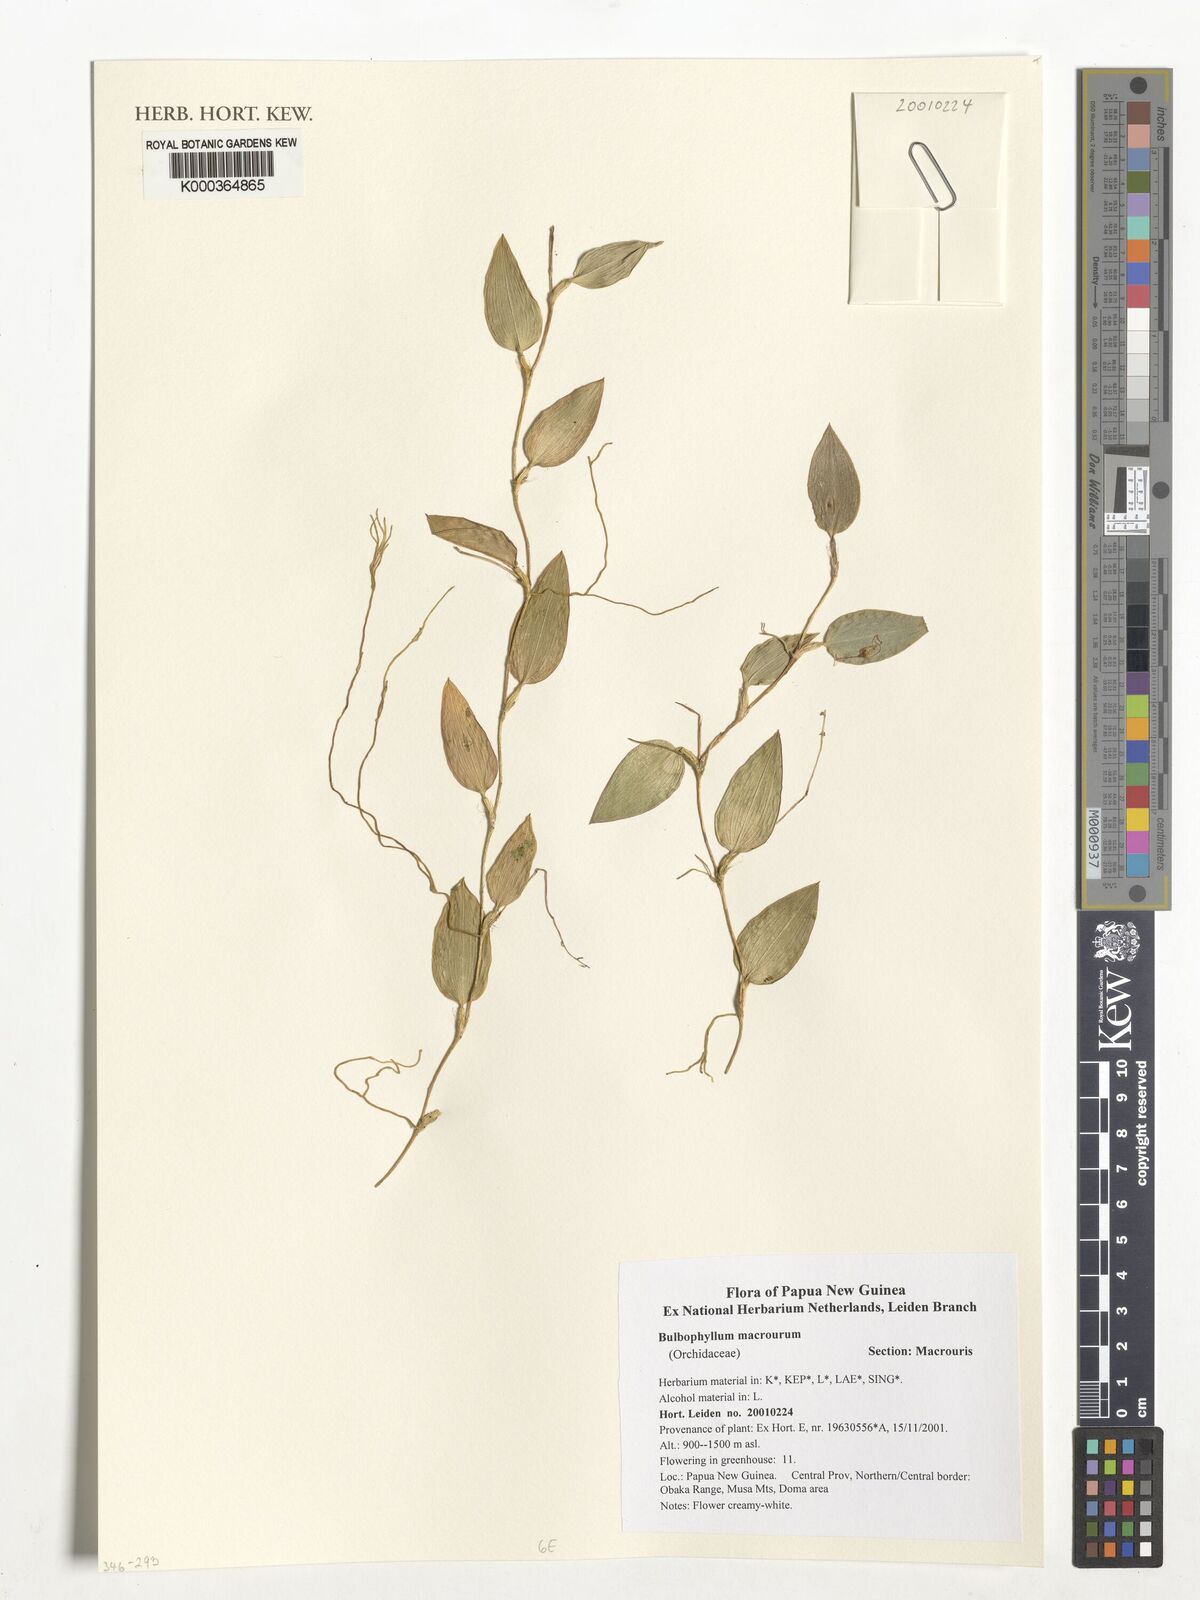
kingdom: Plantae
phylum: Tracheophyta
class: Liliopsida
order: Asparagales
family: Orchidaceae
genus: Bulbophyllum
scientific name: Bulbophyllum macrourum
